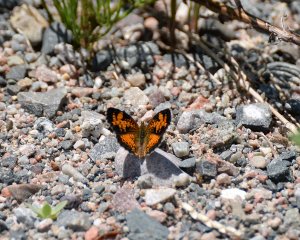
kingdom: Animalia
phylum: Arthropoda
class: Insecta
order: Lepidoptera
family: Nymphalidae
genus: Phyciodes
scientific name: Phyciodes tharos
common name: Northern Crescent
